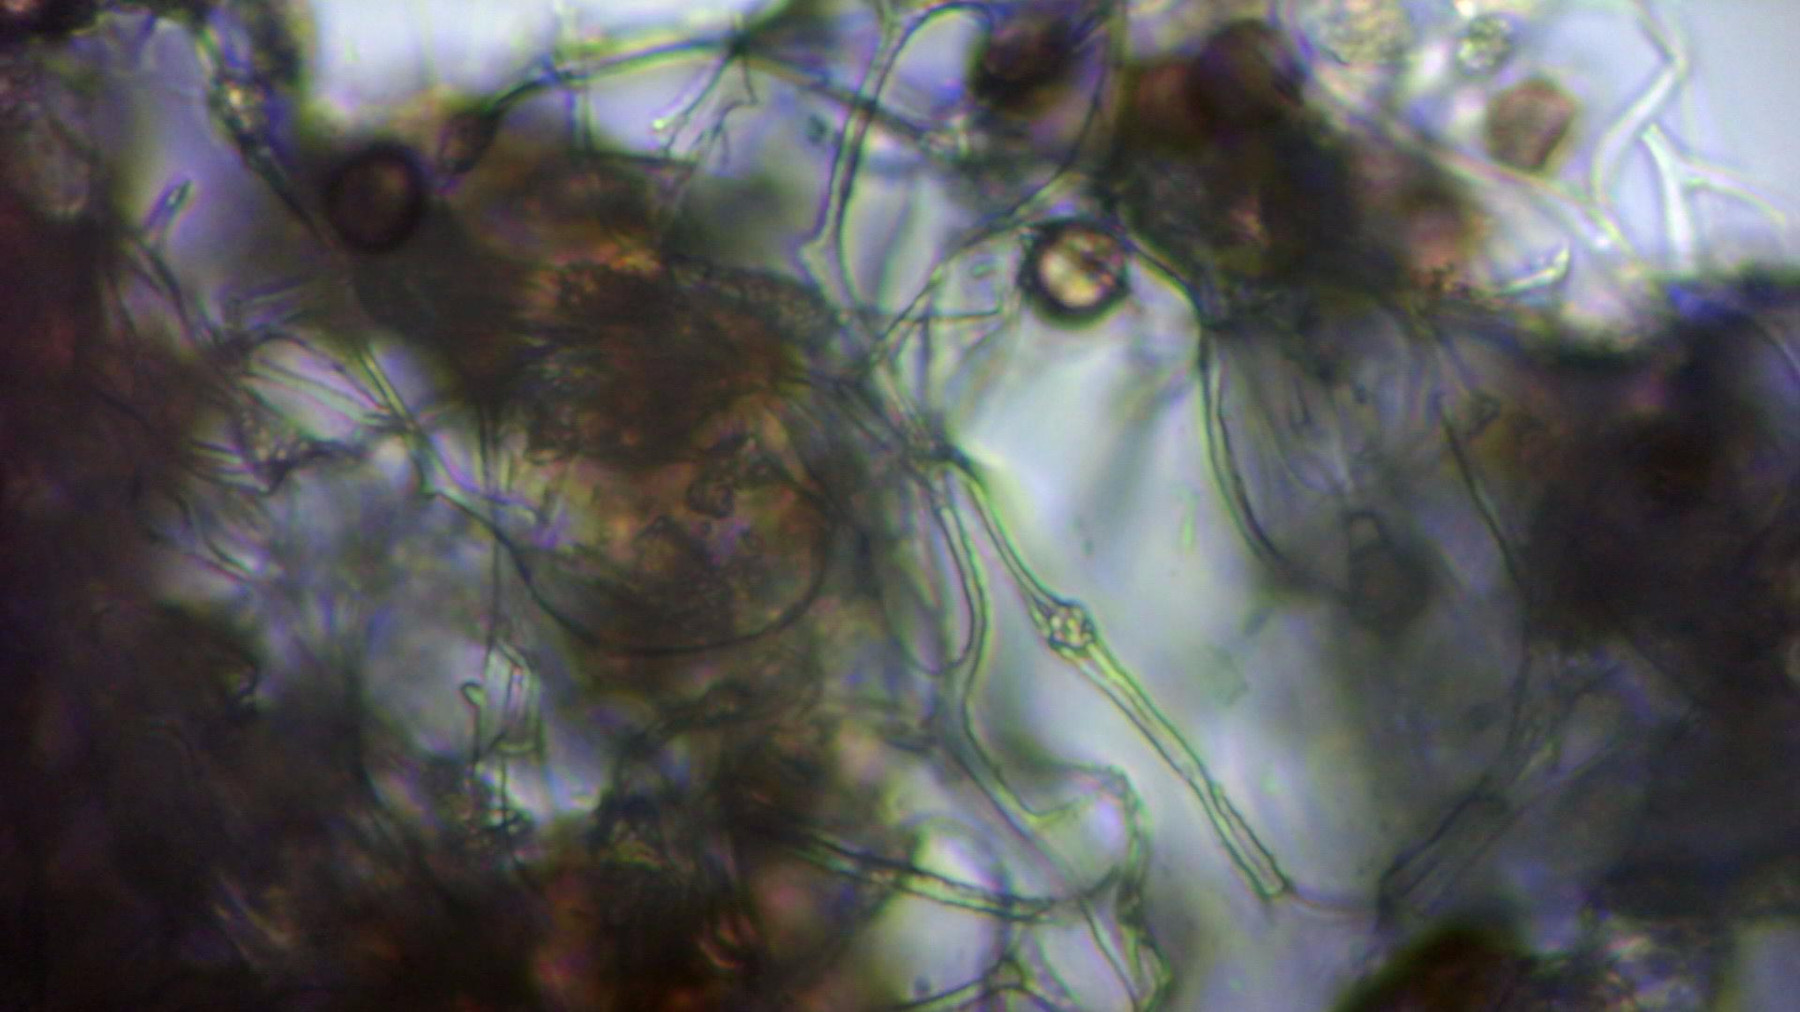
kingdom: Protozoa
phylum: Mycetozoa
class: Myxomycetes
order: Physarales
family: Physaraceae
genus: Physarum
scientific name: Physarum album
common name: nikkende støvknop
